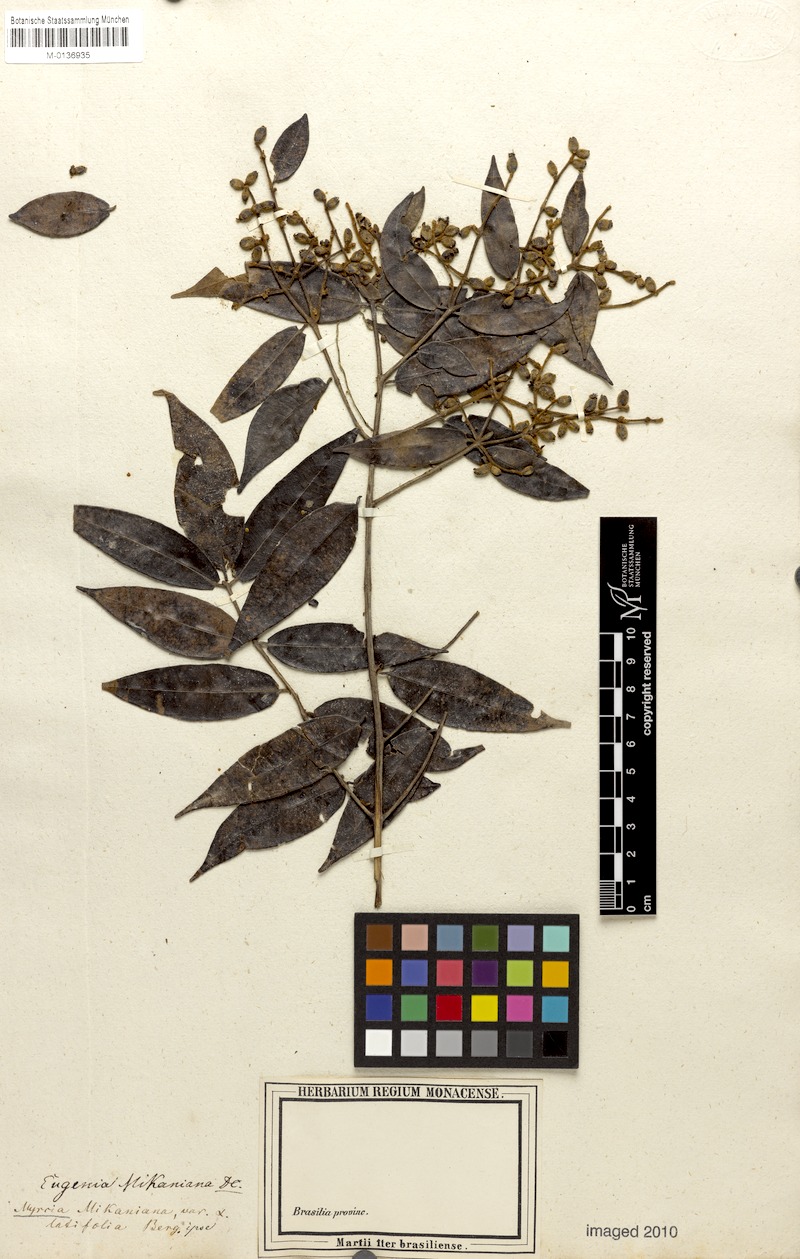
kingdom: Plantae
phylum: Tracheophyta
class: Magnoliopsida
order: Myrtales
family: Myrtaceae
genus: Myrcia
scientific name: Myrcia splendens
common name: Surinam cherry
